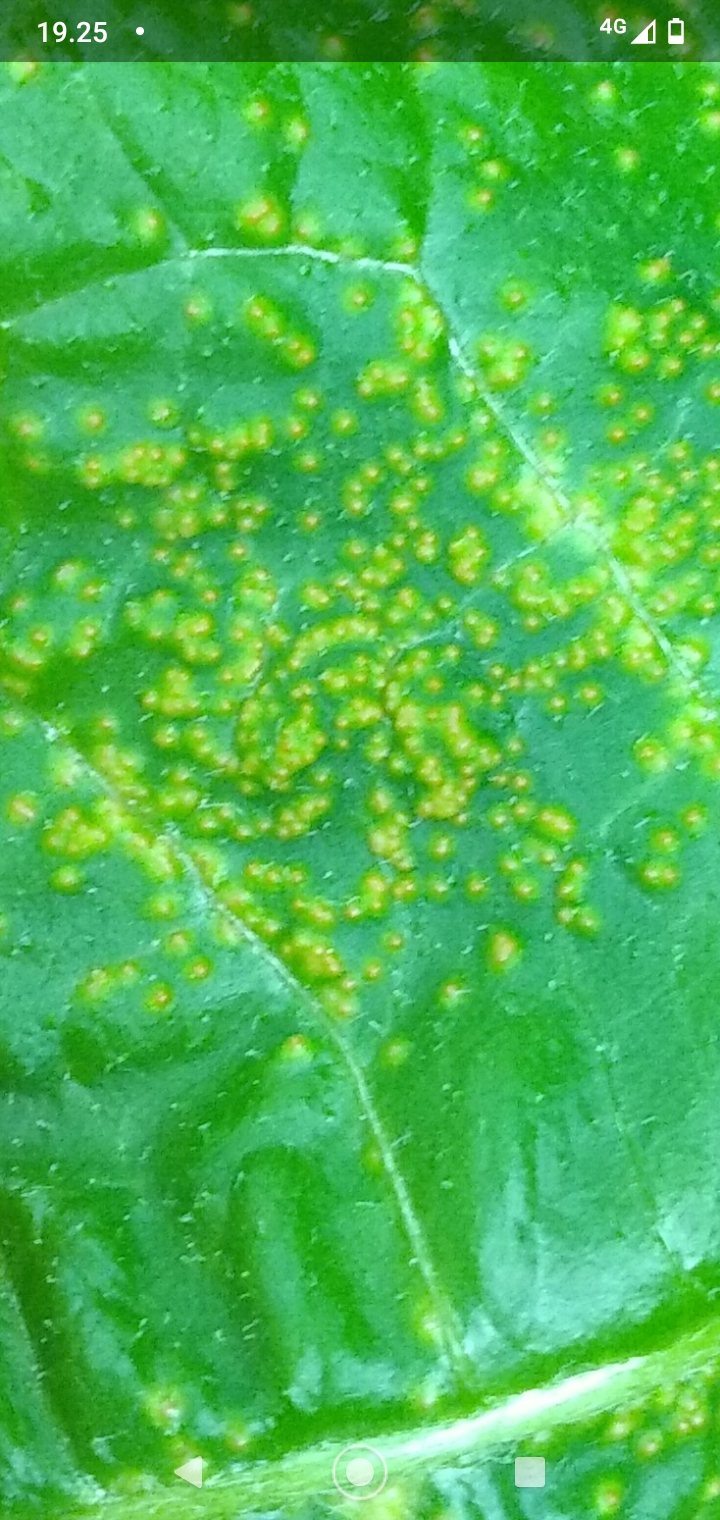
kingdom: Fungi
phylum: Chytridiomycota
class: Chytridiomycetes
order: Chytridiales
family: Synchytriaceae
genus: Synchytrium
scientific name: Synchytrium taraxaci
